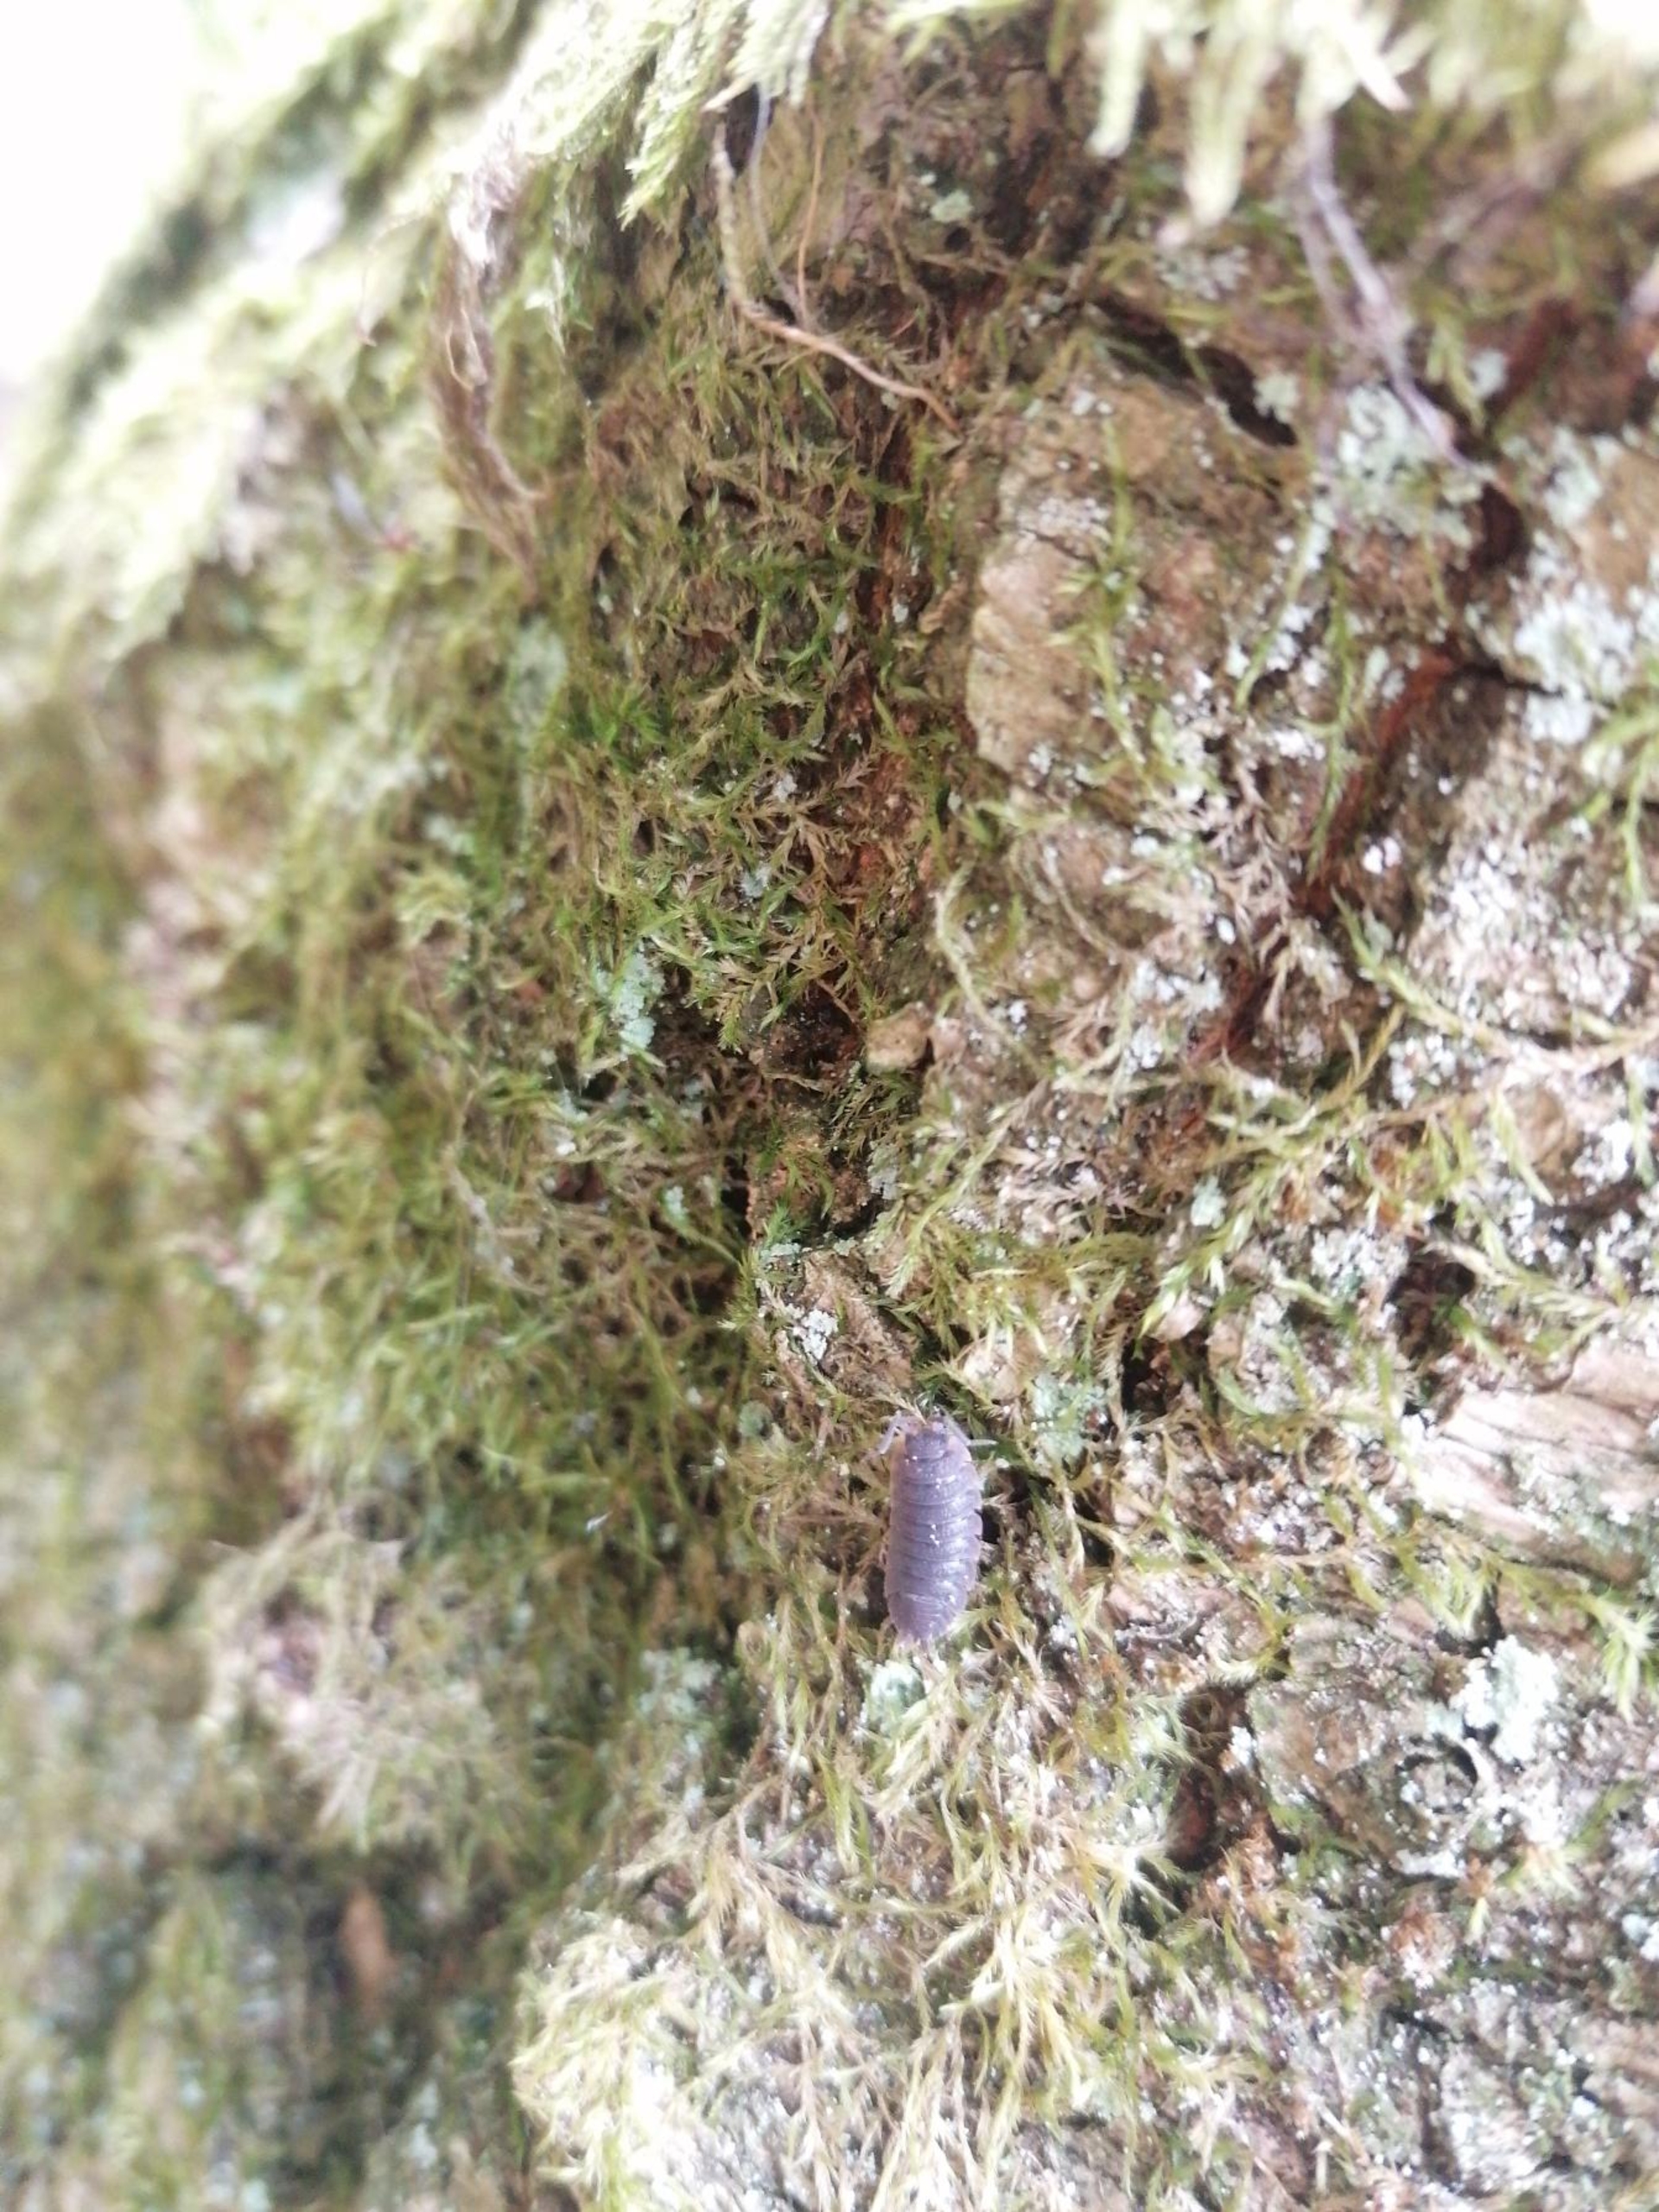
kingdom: Animalia
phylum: Arthropoda
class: Malacostraca
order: Isopoda
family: Porcellionidae
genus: Porcellio
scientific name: Porcellio scaber
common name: Grå bænkebider
